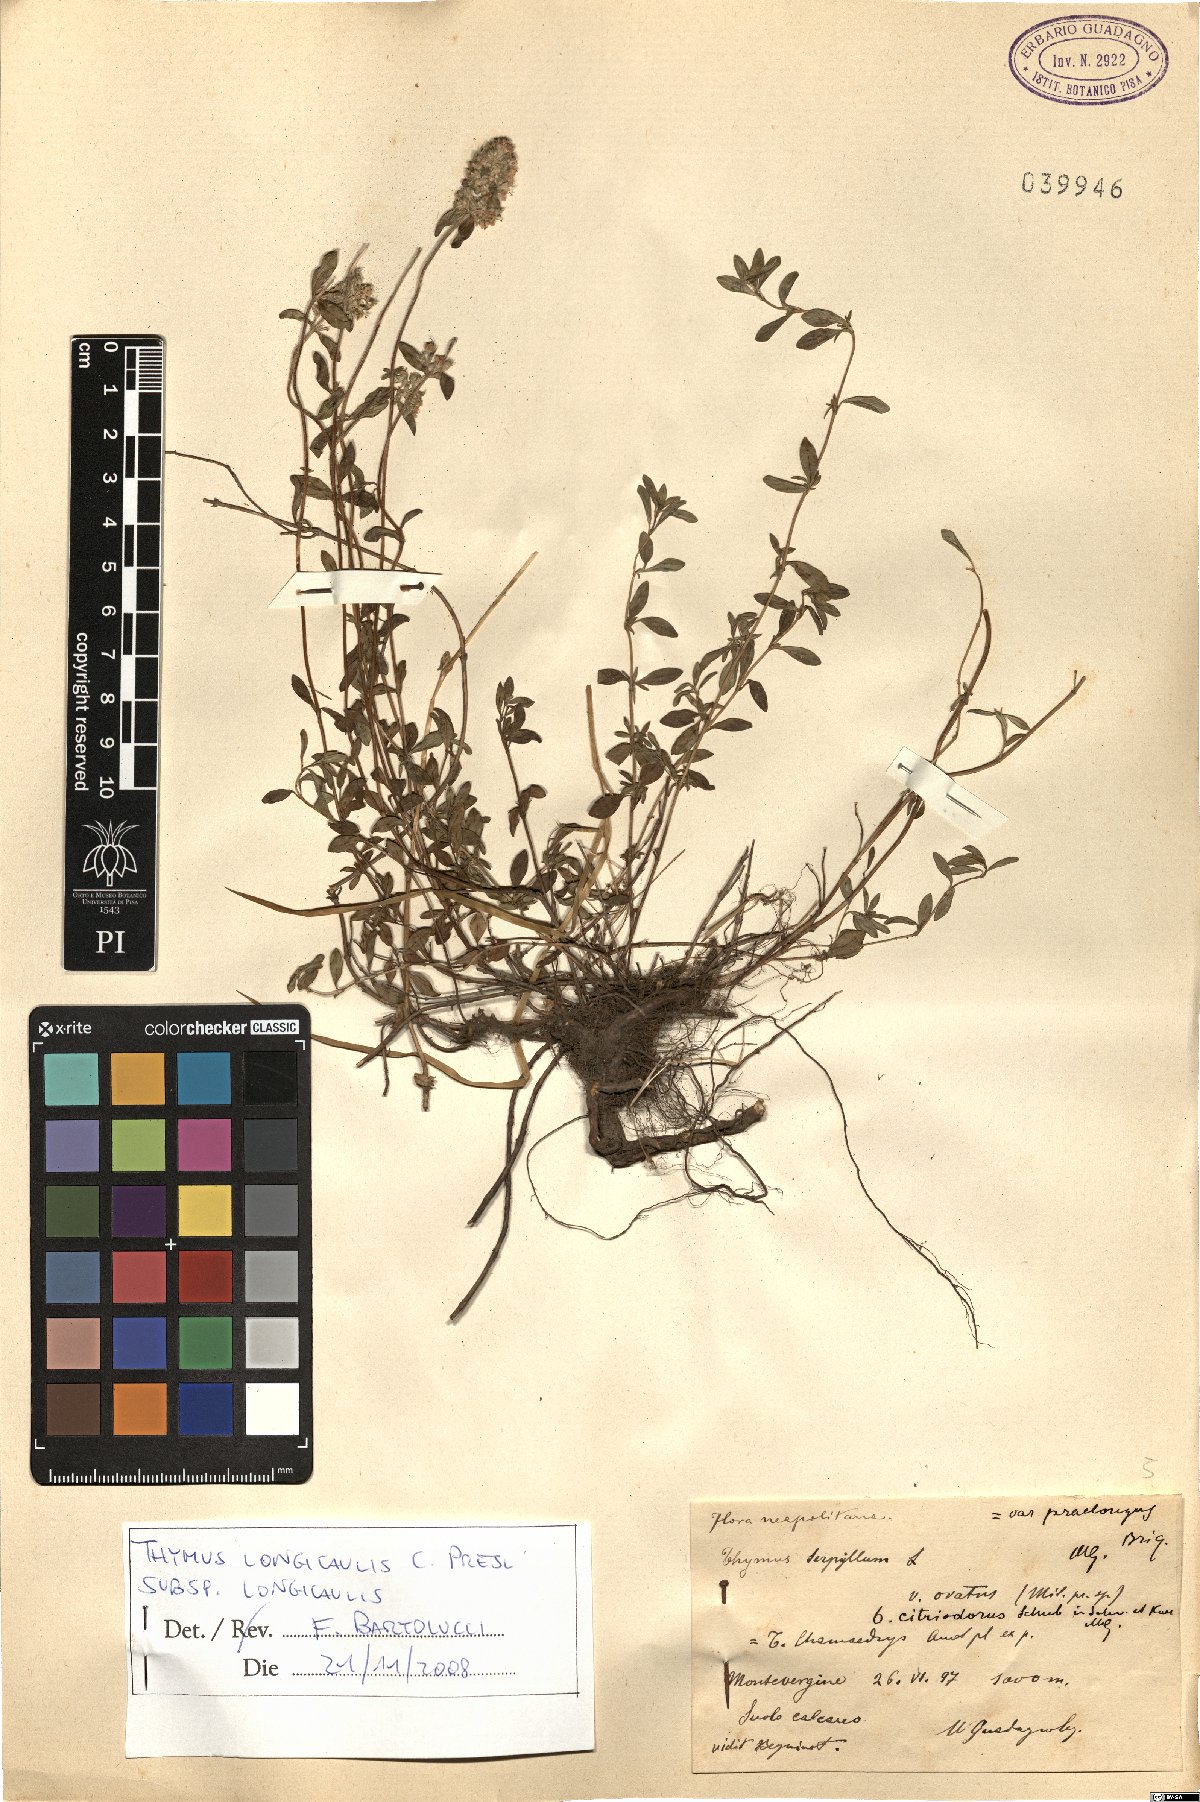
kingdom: Plantae
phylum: Tracheophyta
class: Magnoliopsida
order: Lamiales
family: Lamiaceae
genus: Thymus
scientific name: Thymus longicaulis
